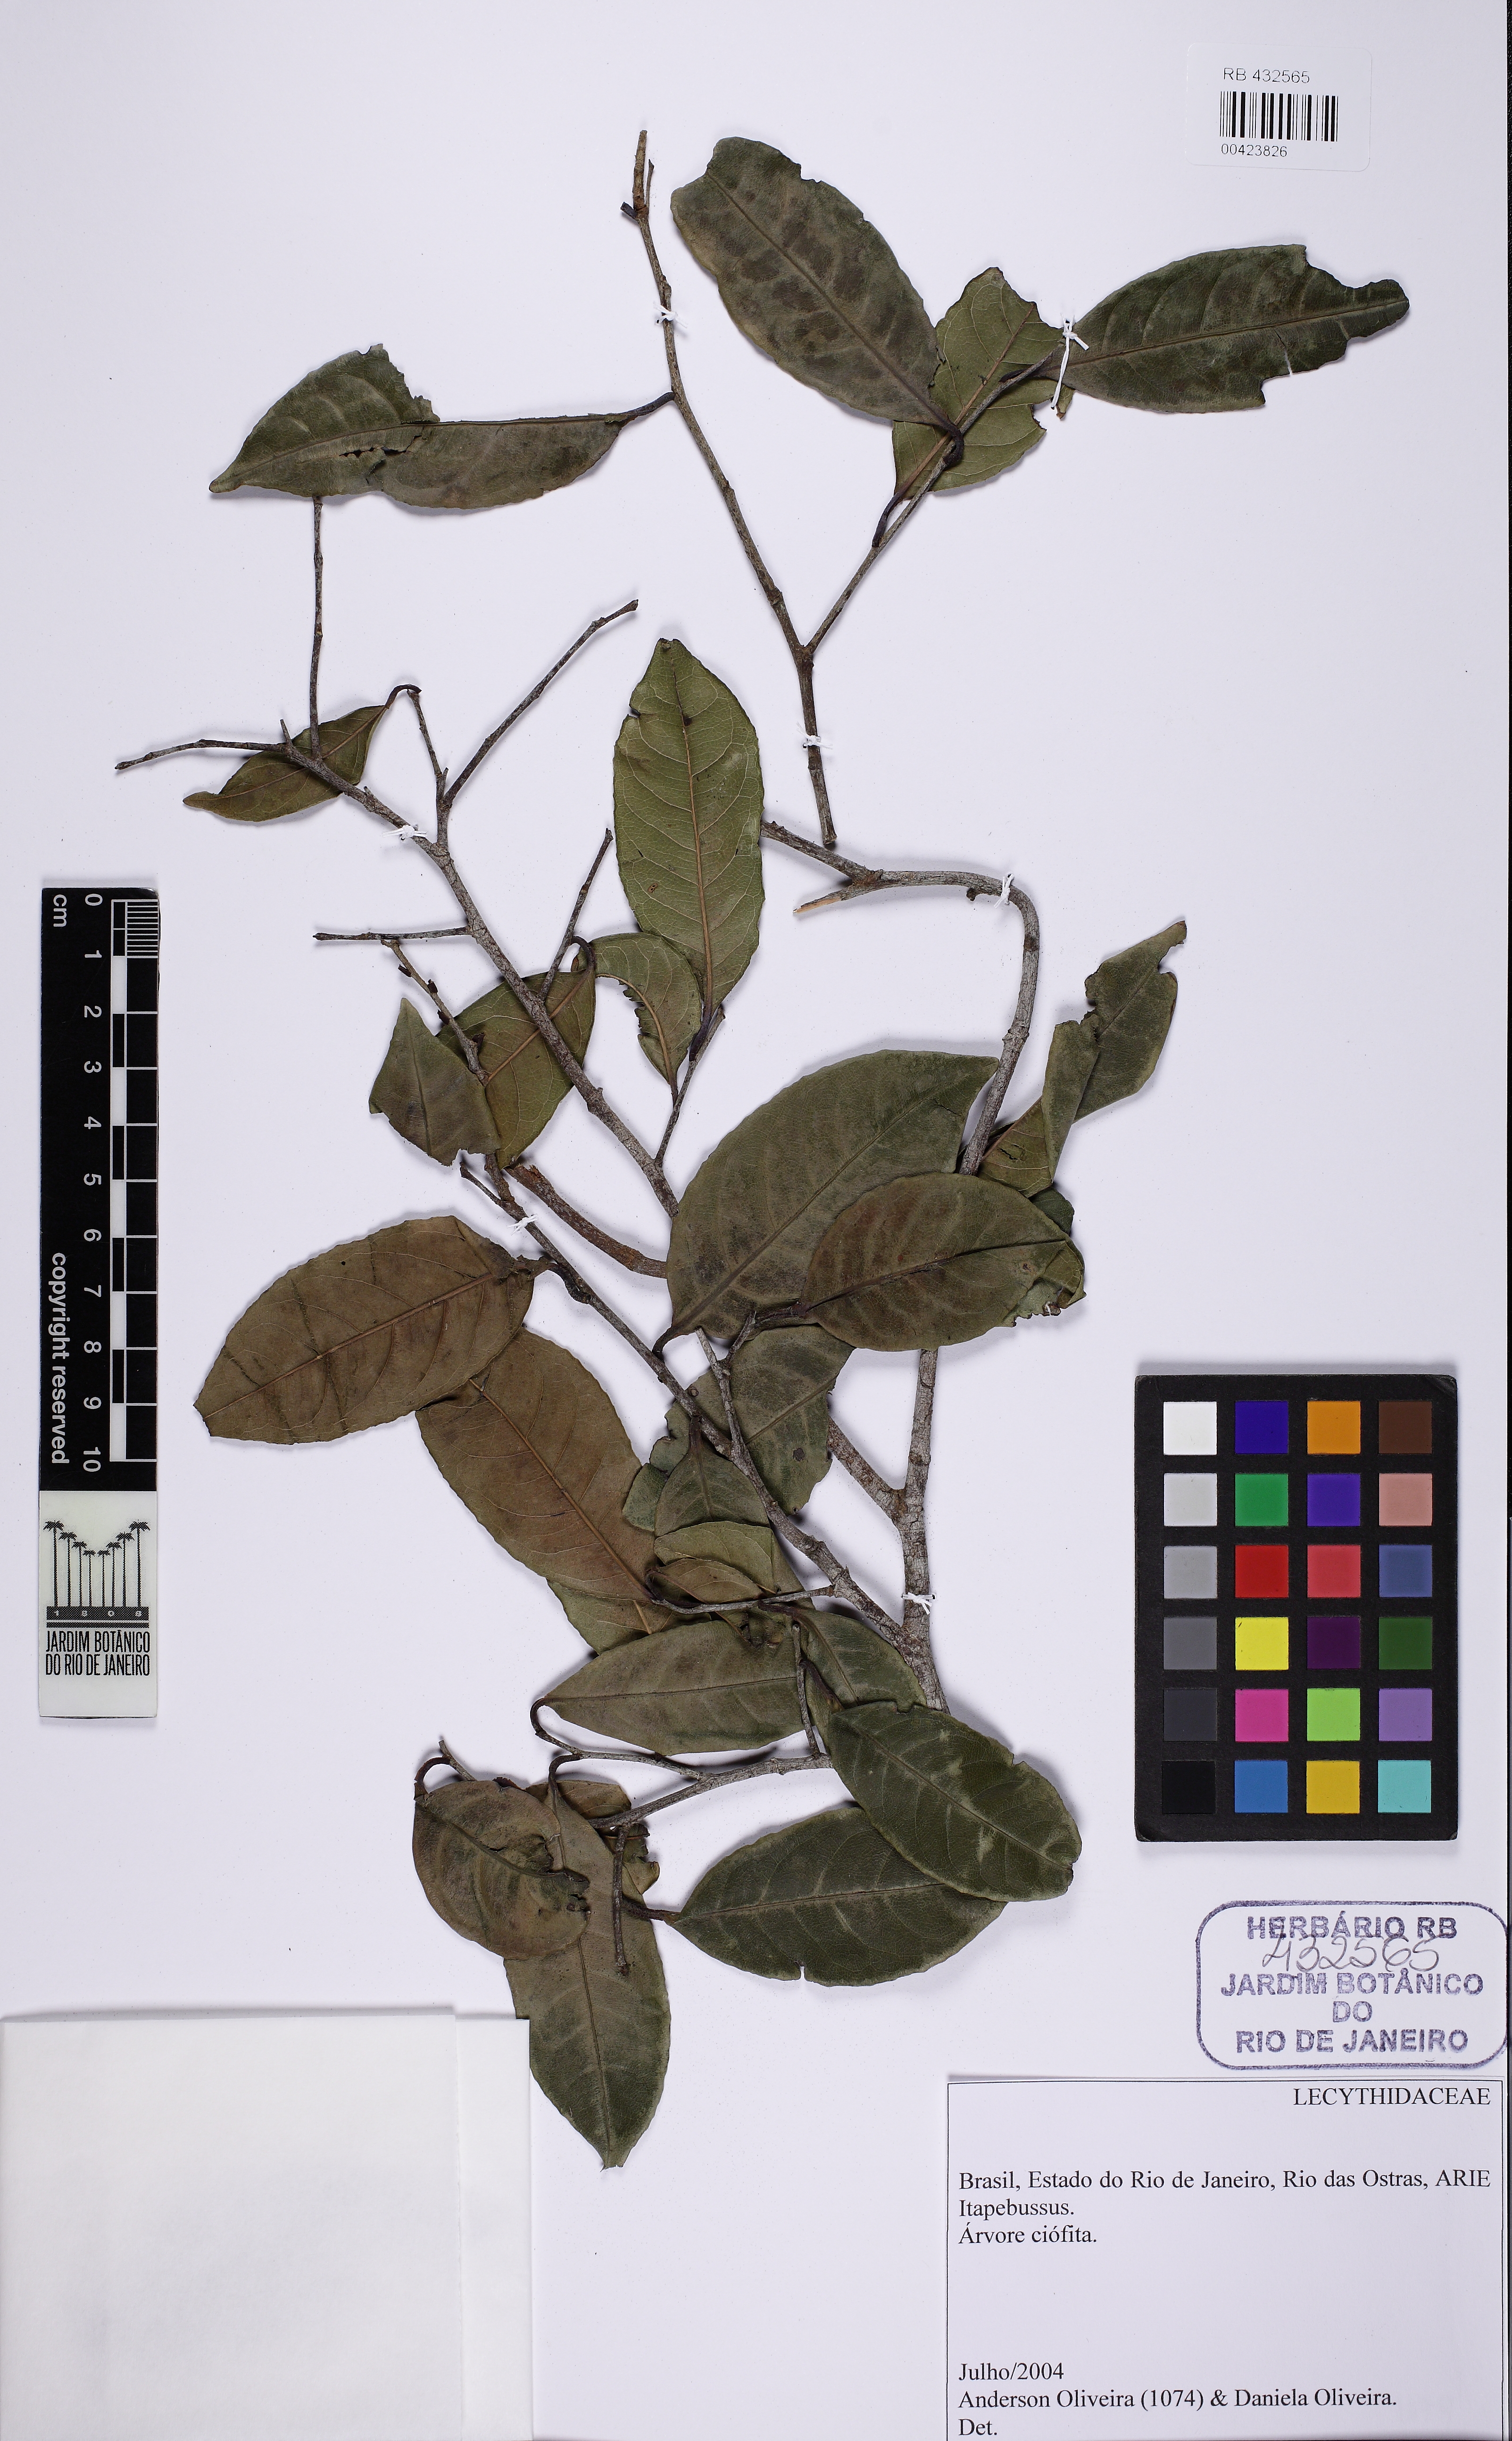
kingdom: Plantae
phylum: Tracheophyta
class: Magnoliopsida
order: Ericales
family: Lecythidaceae
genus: Eschweilera
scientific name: Eschweilera compressa
